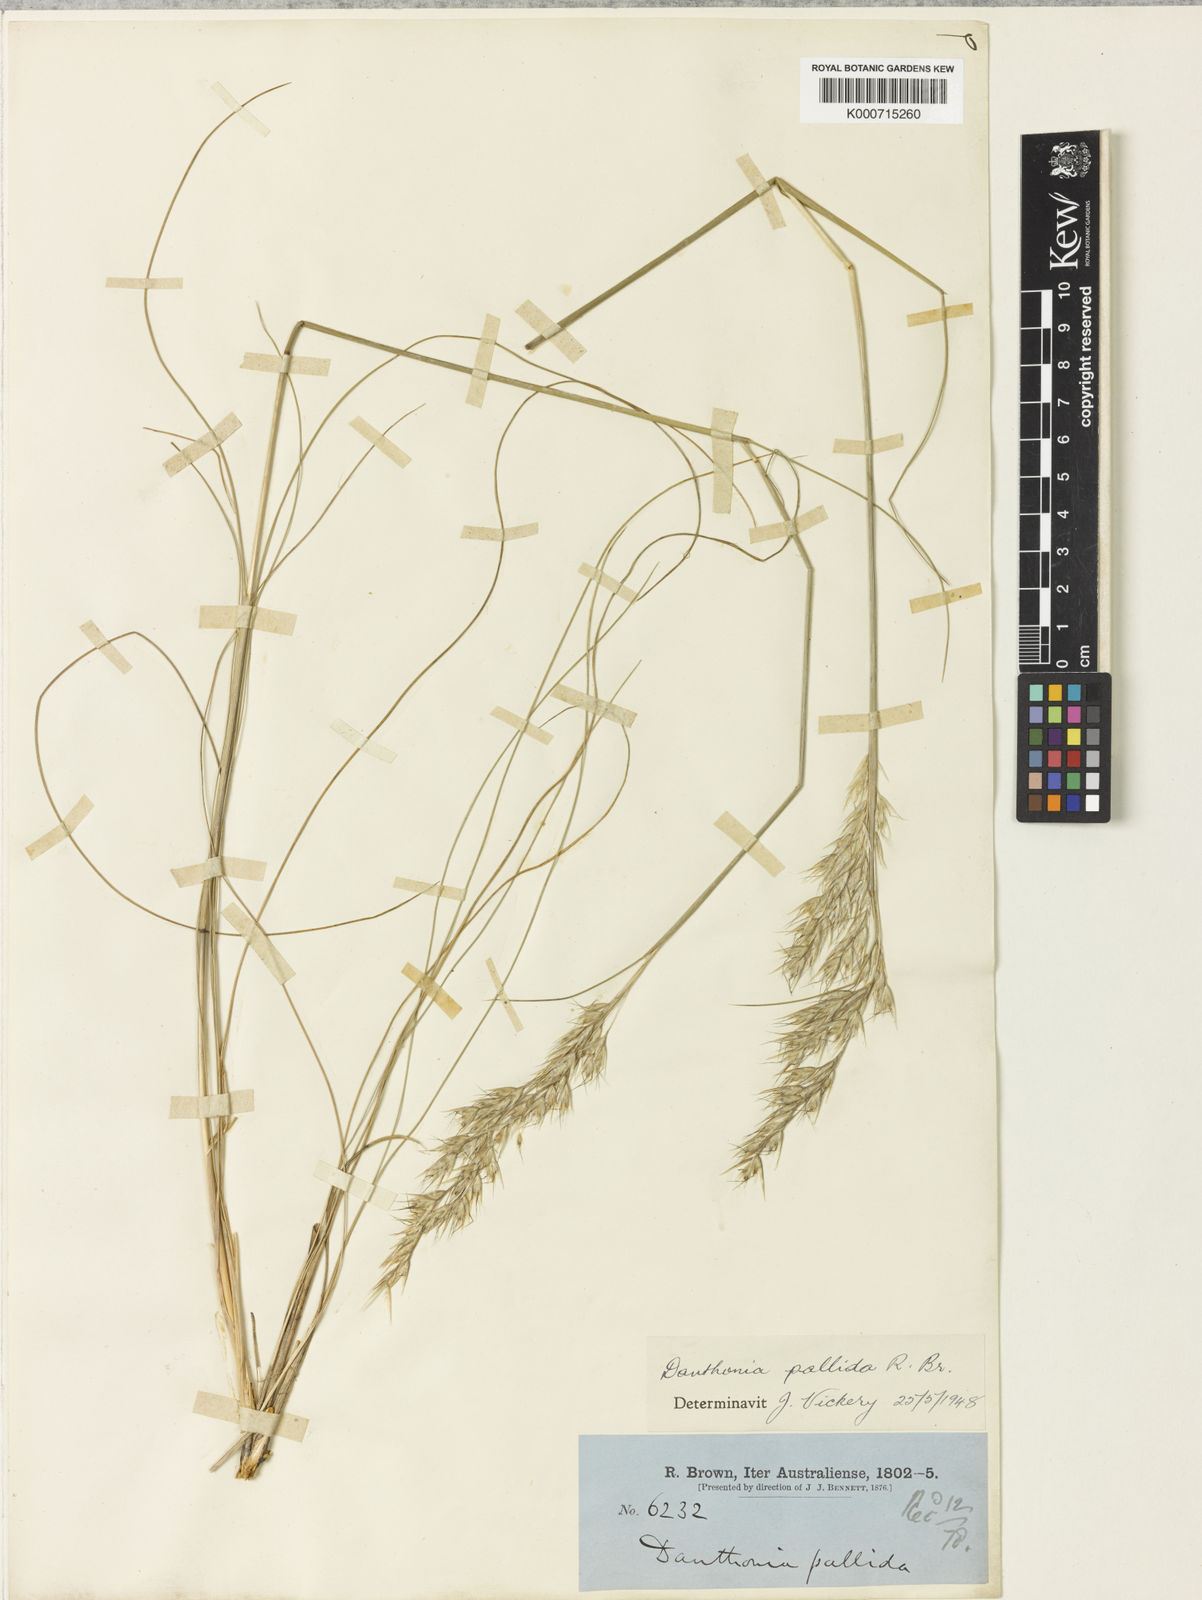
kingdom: Plantae
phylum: Tracheophyta
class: Liliopsida
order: Poales
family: Poaceae
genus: Rytidosperma
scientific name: Rytidosperma pallidum
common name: Red-anther wallaby grass
